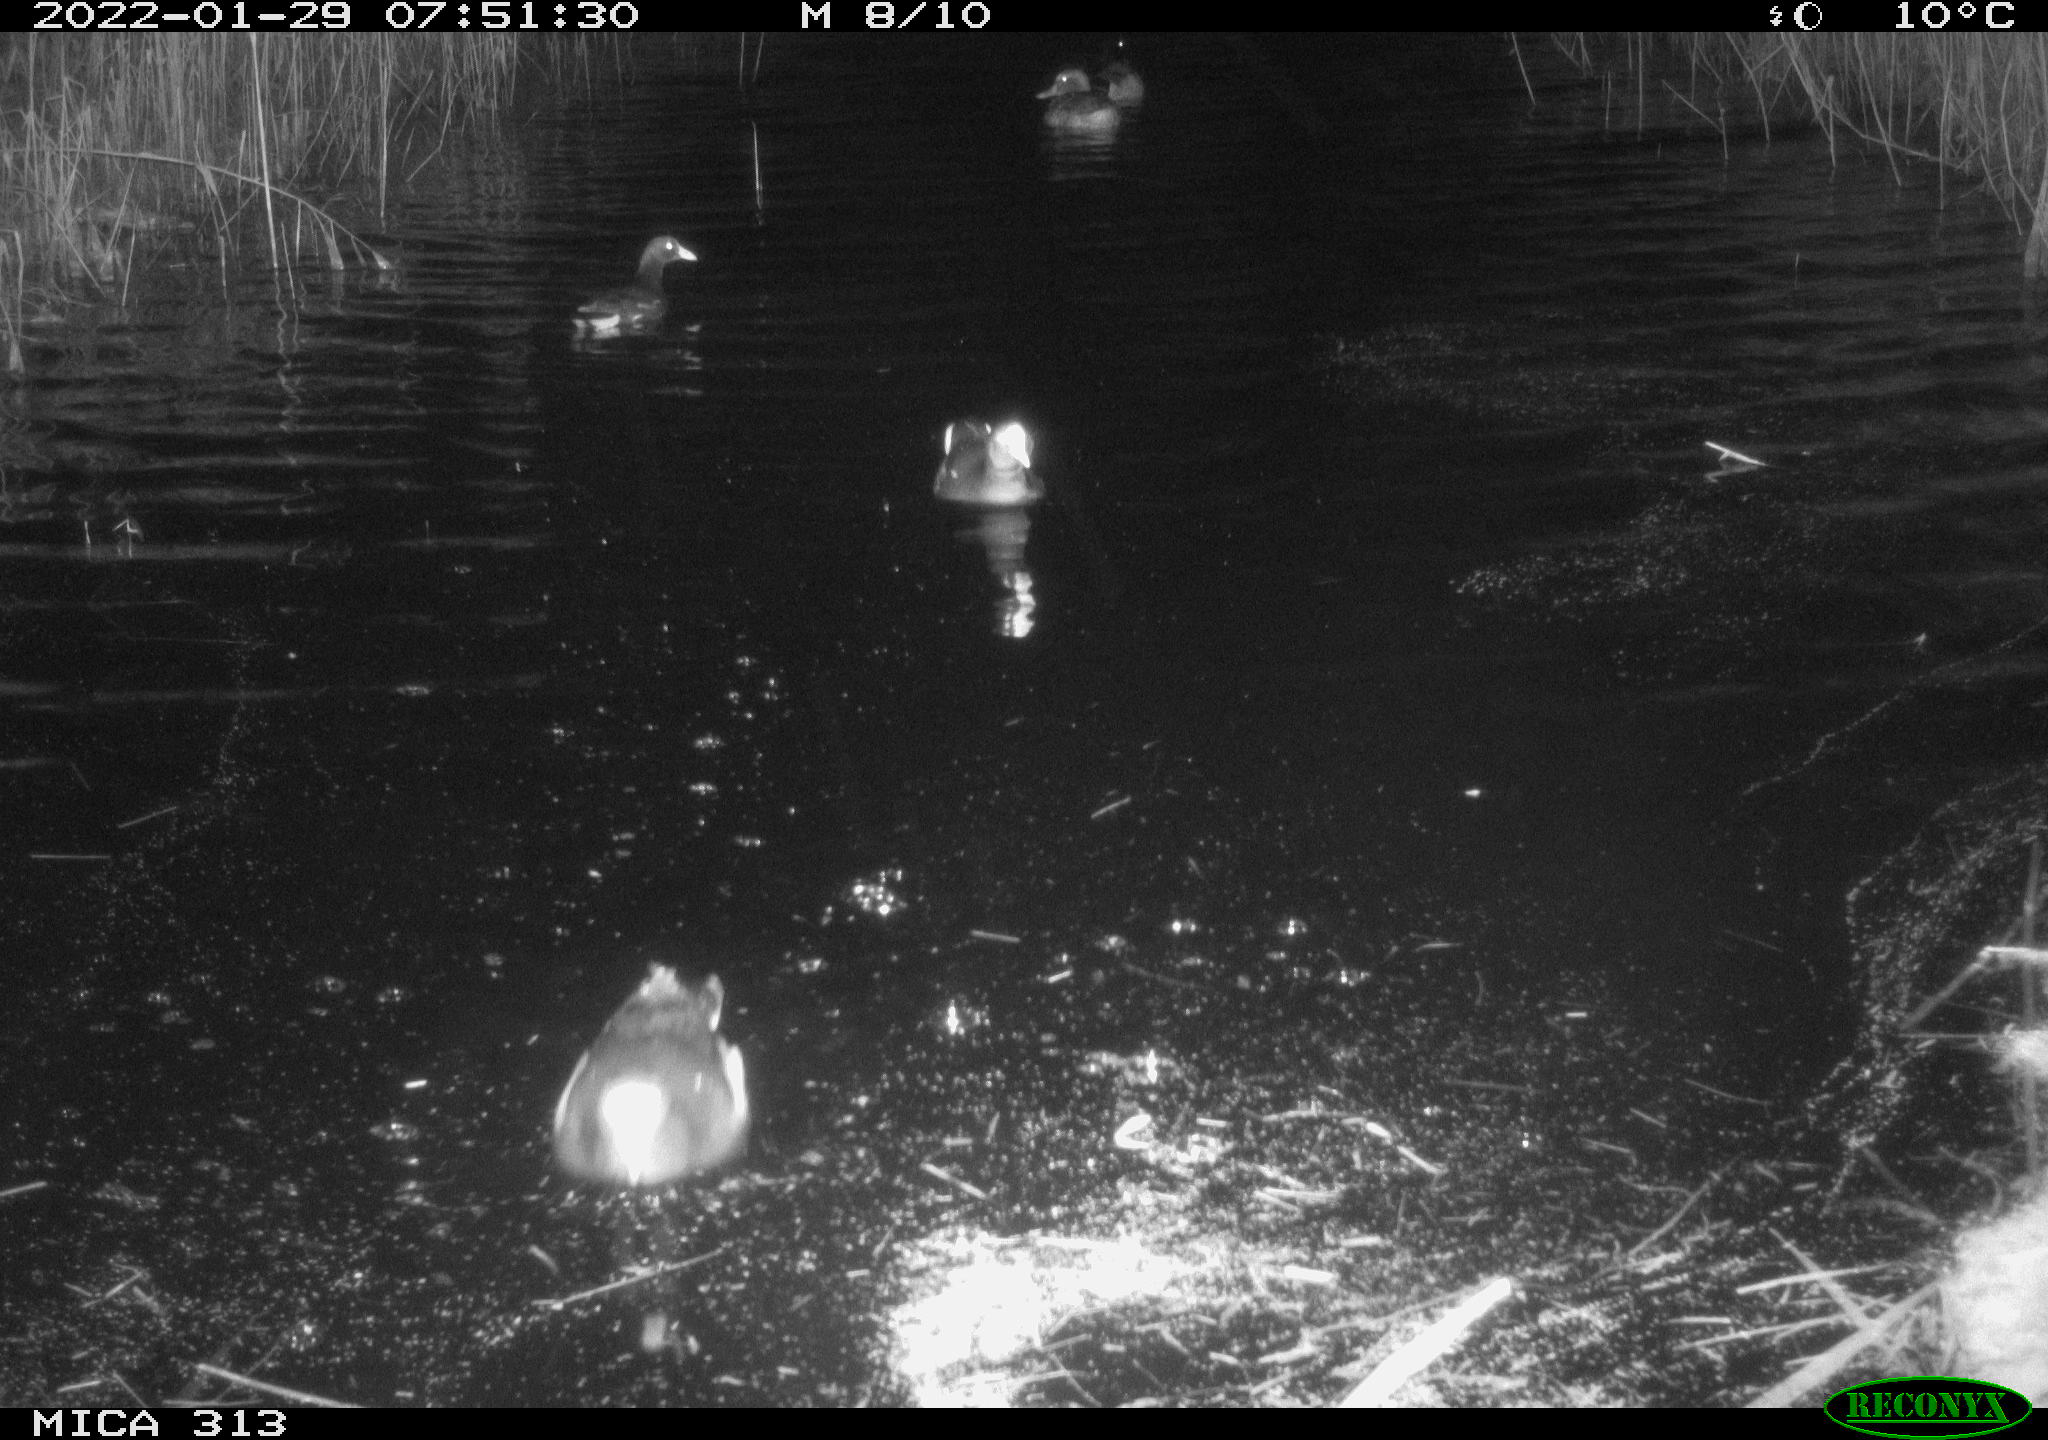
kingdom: Animalia
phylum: Chordata
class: Aves
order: Gruiformes
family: Rallidae
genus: Gallinula
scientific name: Gallinula chloropus
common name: Common moorhen
